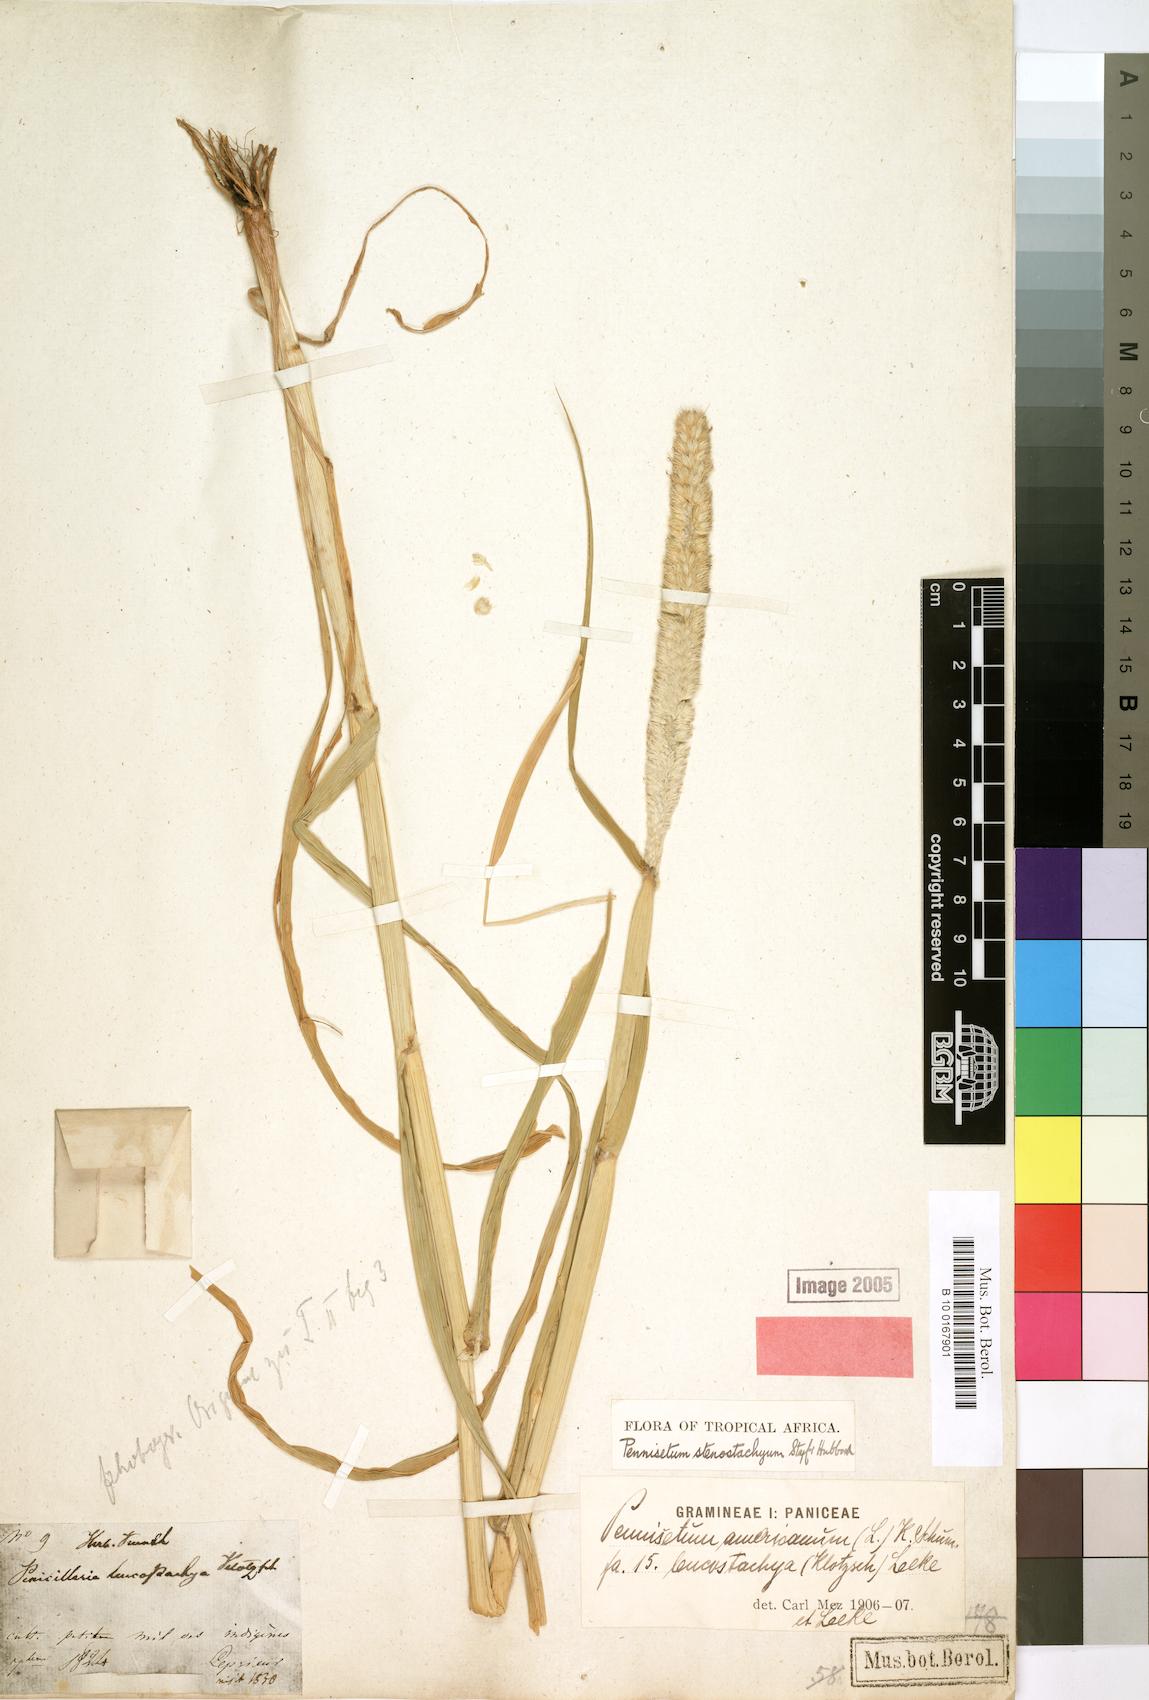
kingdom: Plantae
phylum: Tracheophyta
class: Liliopsida
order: Poales
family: Poaceae
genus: Cenchrus
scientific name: Cenchrus americanus
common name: Pearl millet
